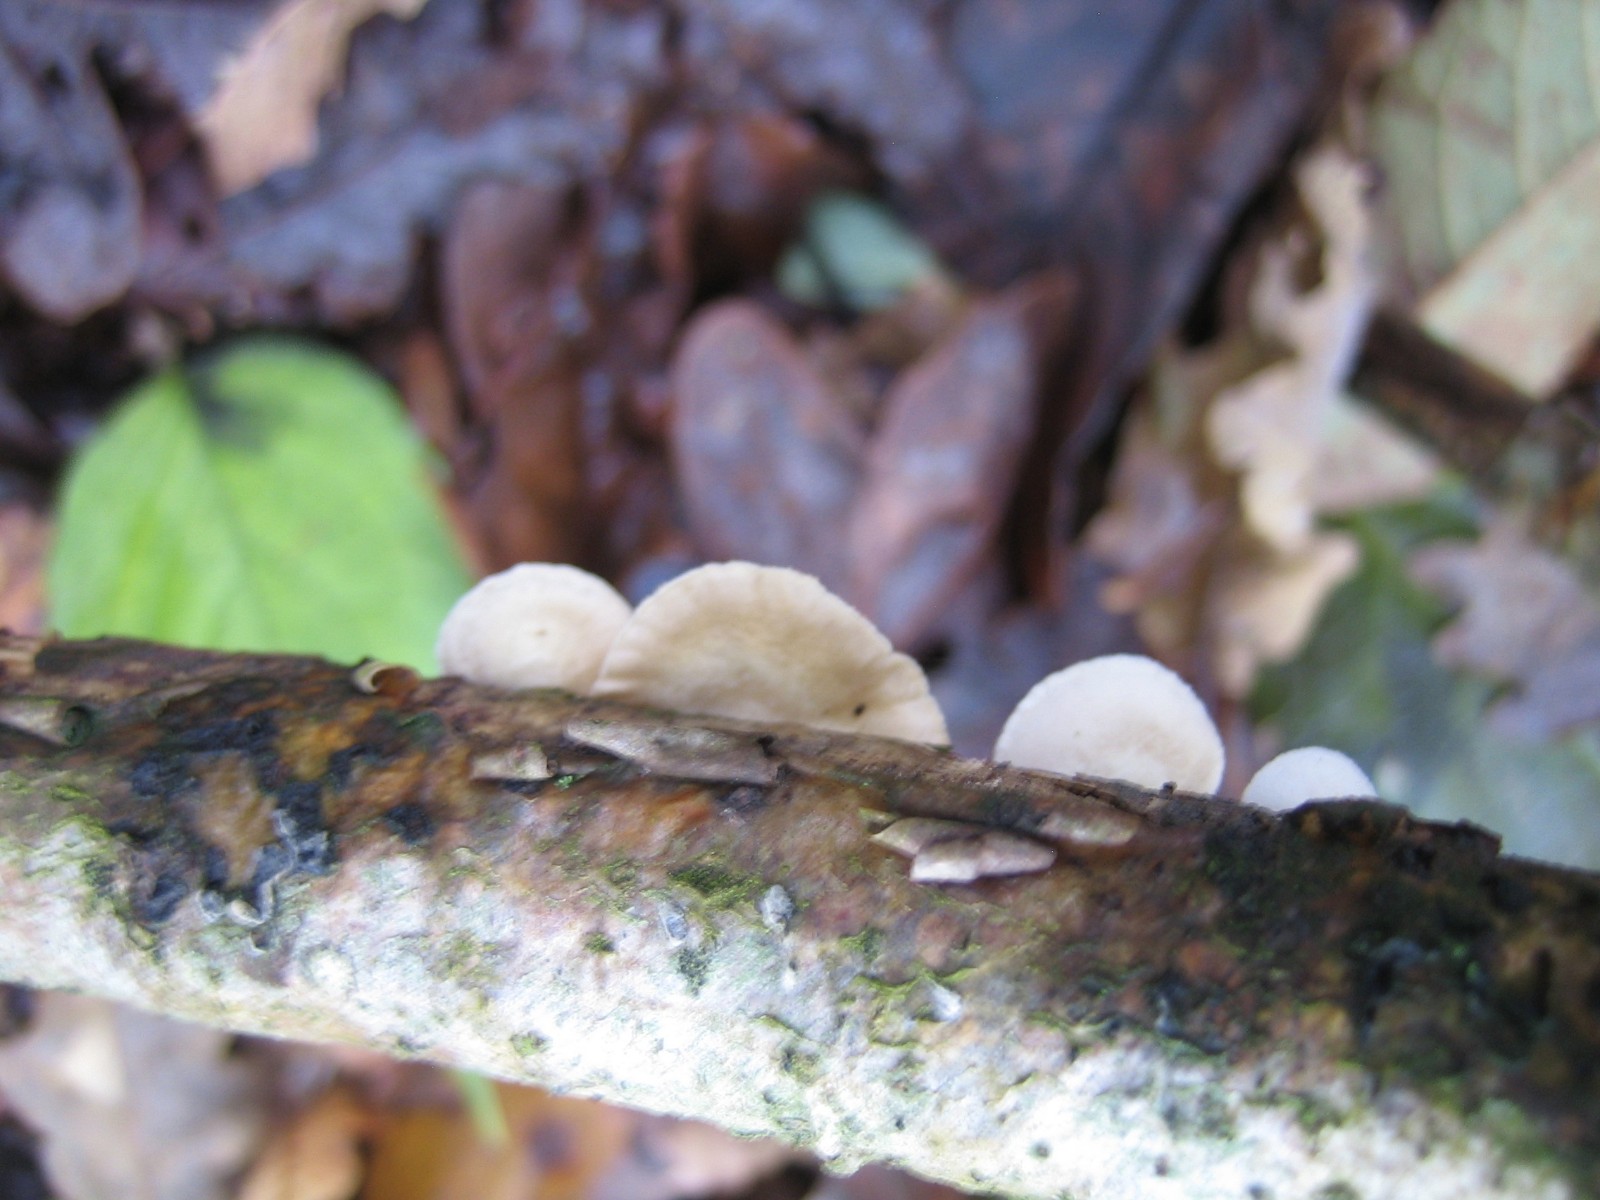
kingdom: Fungi
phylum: Basidiomycota
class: Agaricomycetes
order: Agaricales
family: Crepidotaceae
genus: Crepidotus
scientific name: Crepidotus
